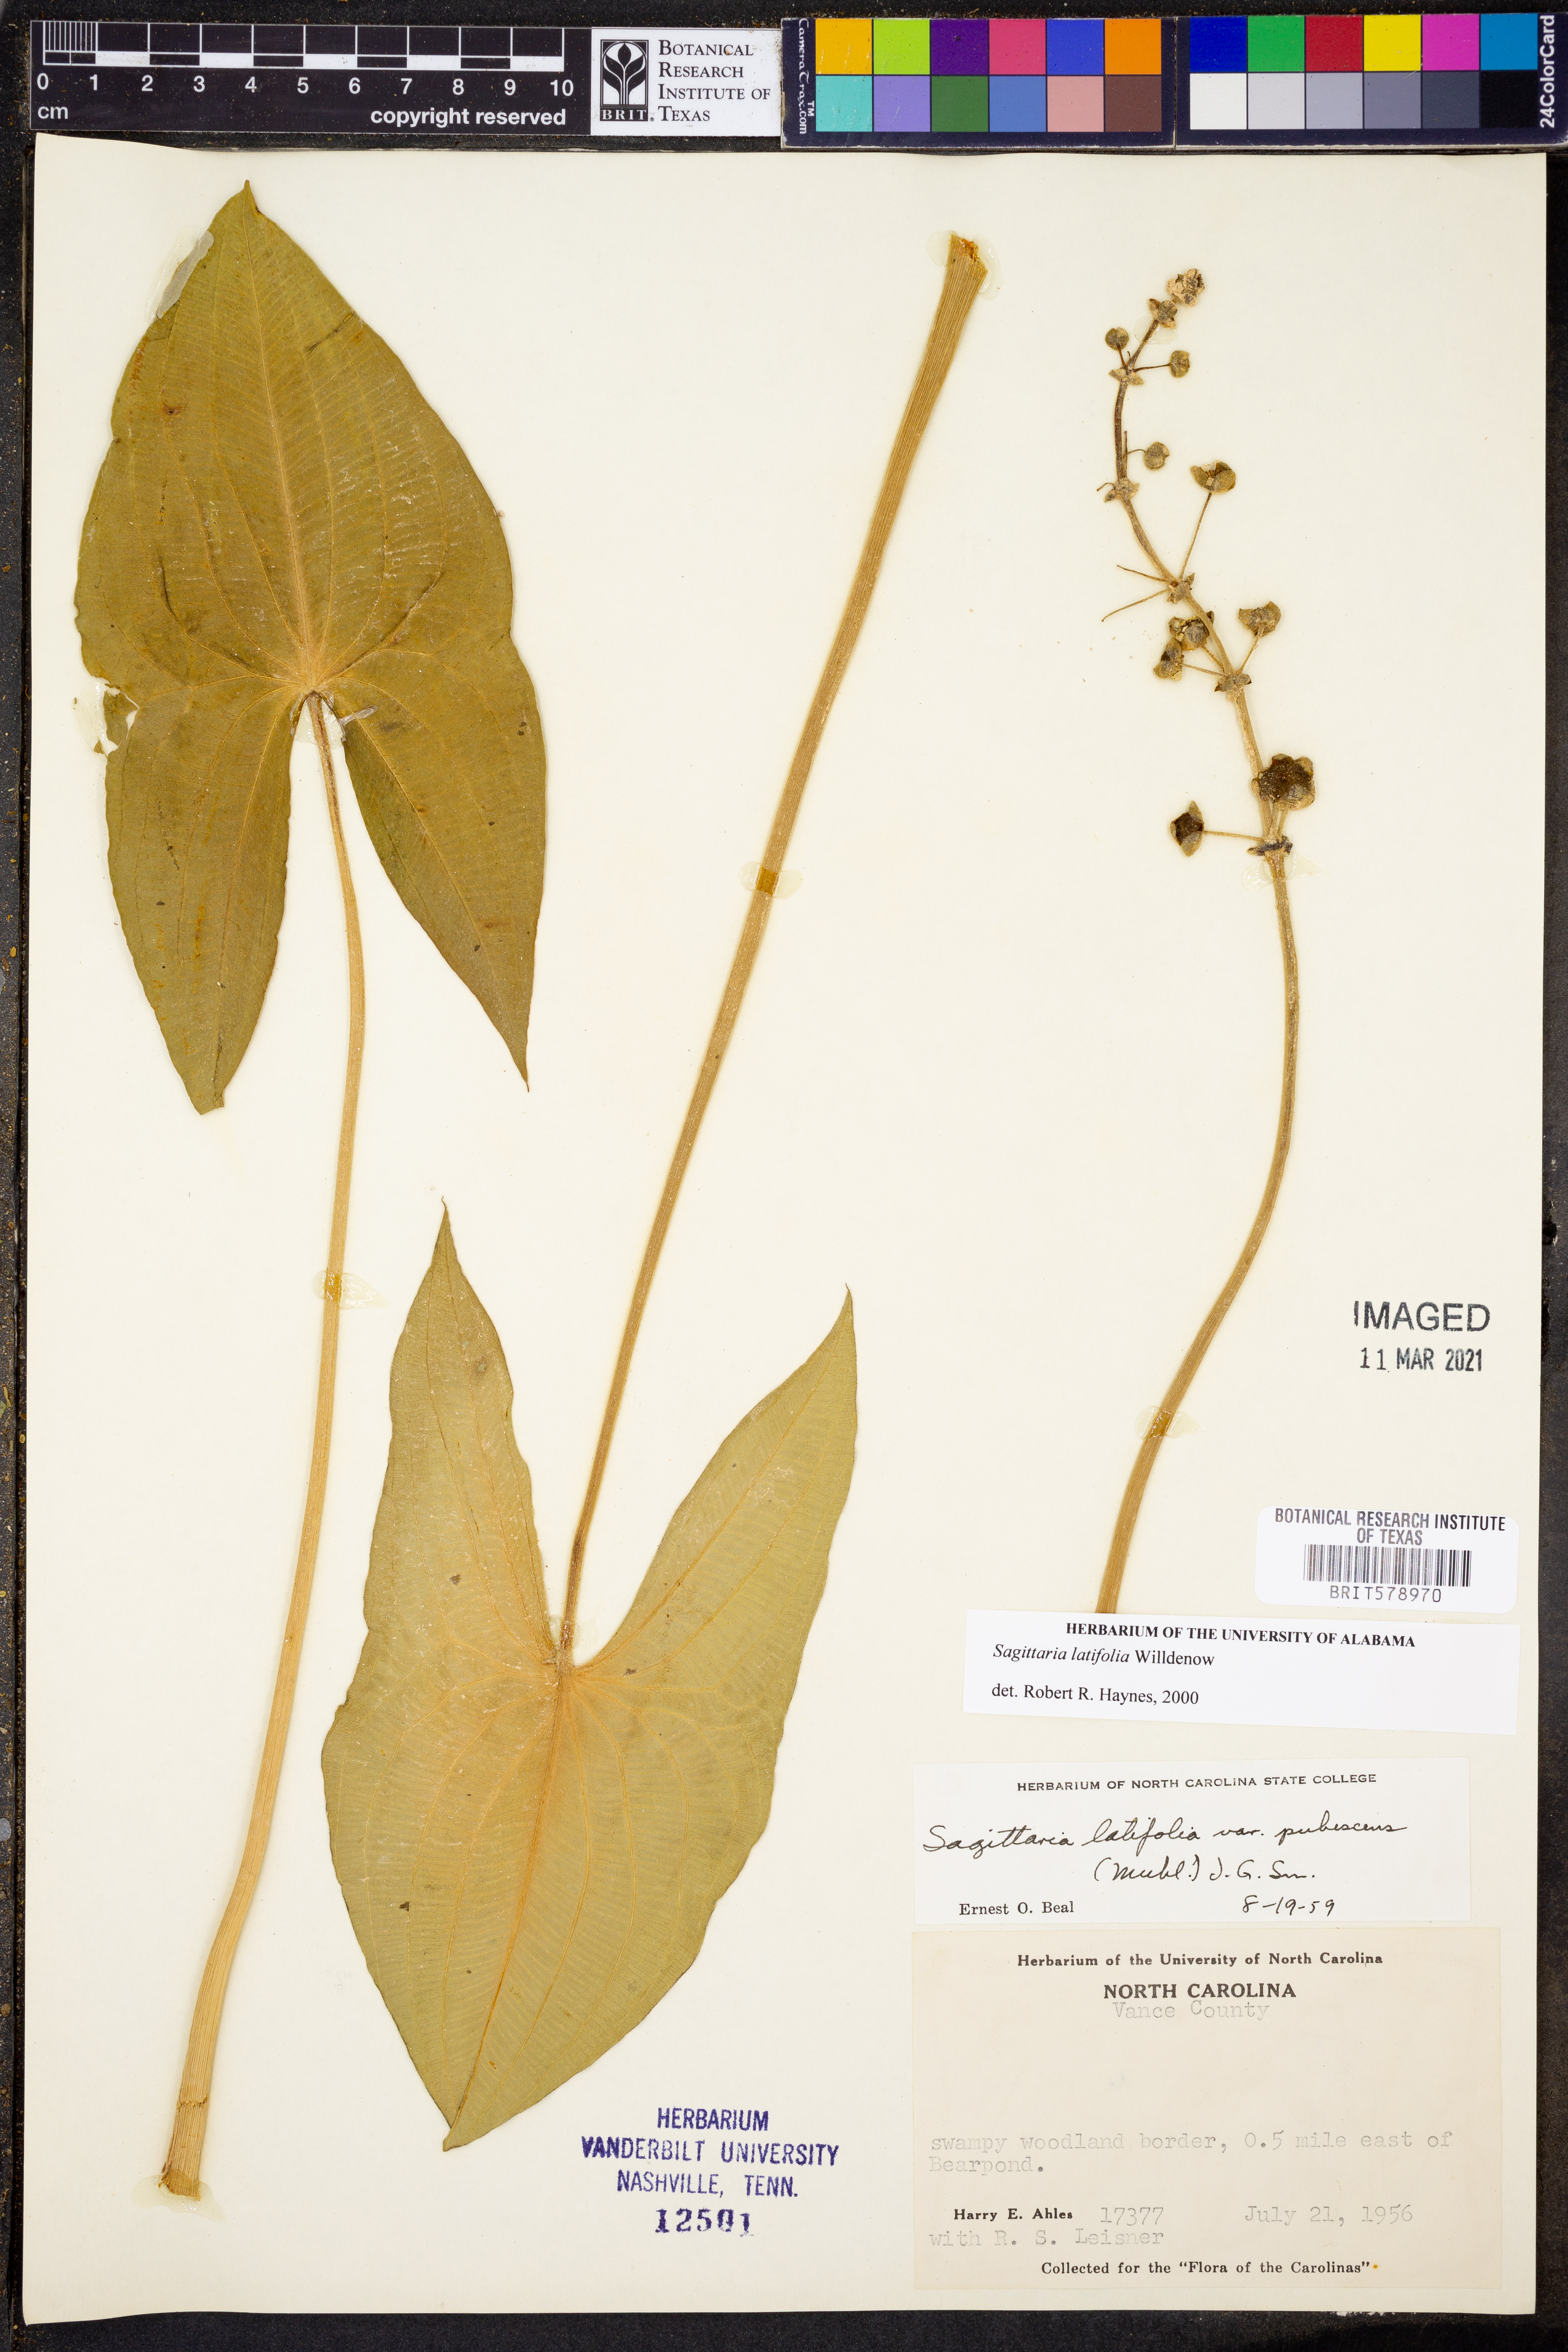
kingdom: Plantae
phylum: Tracheophyta
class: Liliopsida
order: Alismatales
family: Alismataceae
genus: Sagittaria
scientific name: Sagittaria latifolia
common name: Duck-potato
